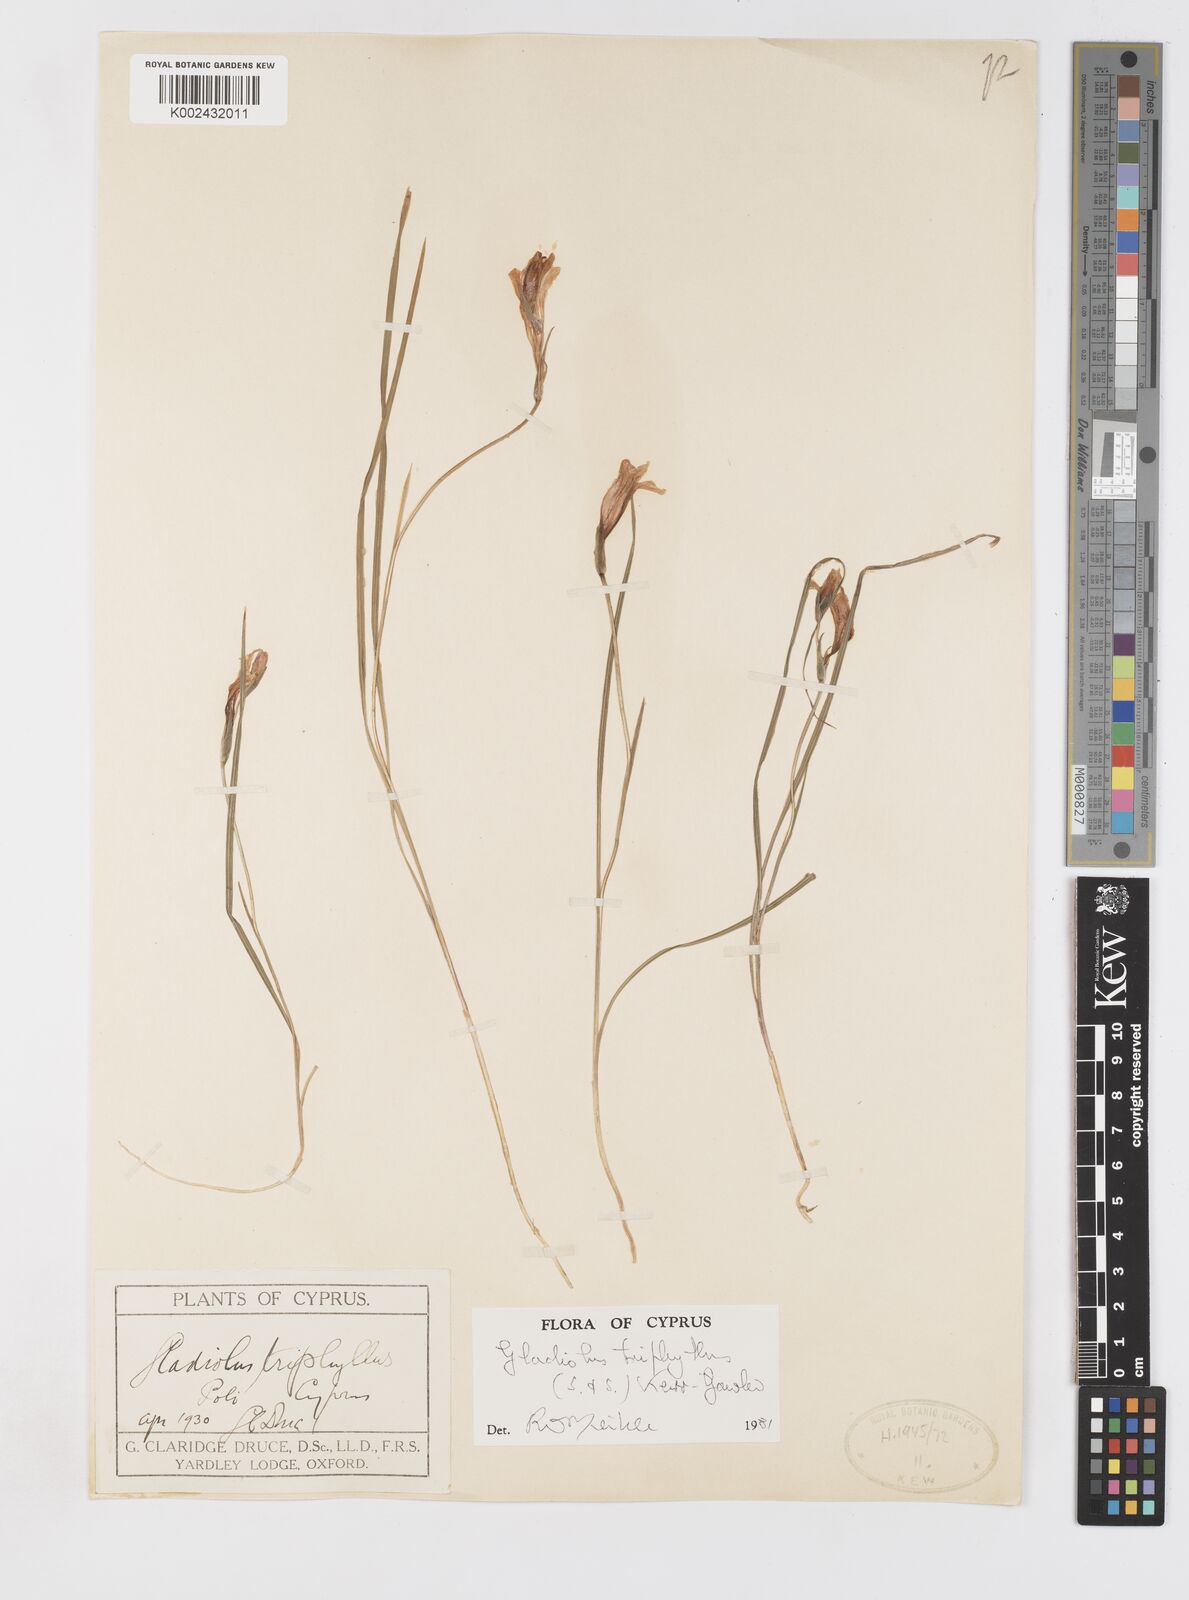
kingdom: Plantae
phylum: Tracheophyta
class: Liliopsida
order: Asparagales
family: Iridaceae
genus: Gladiolus
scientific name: Gladiolus triphyllus
